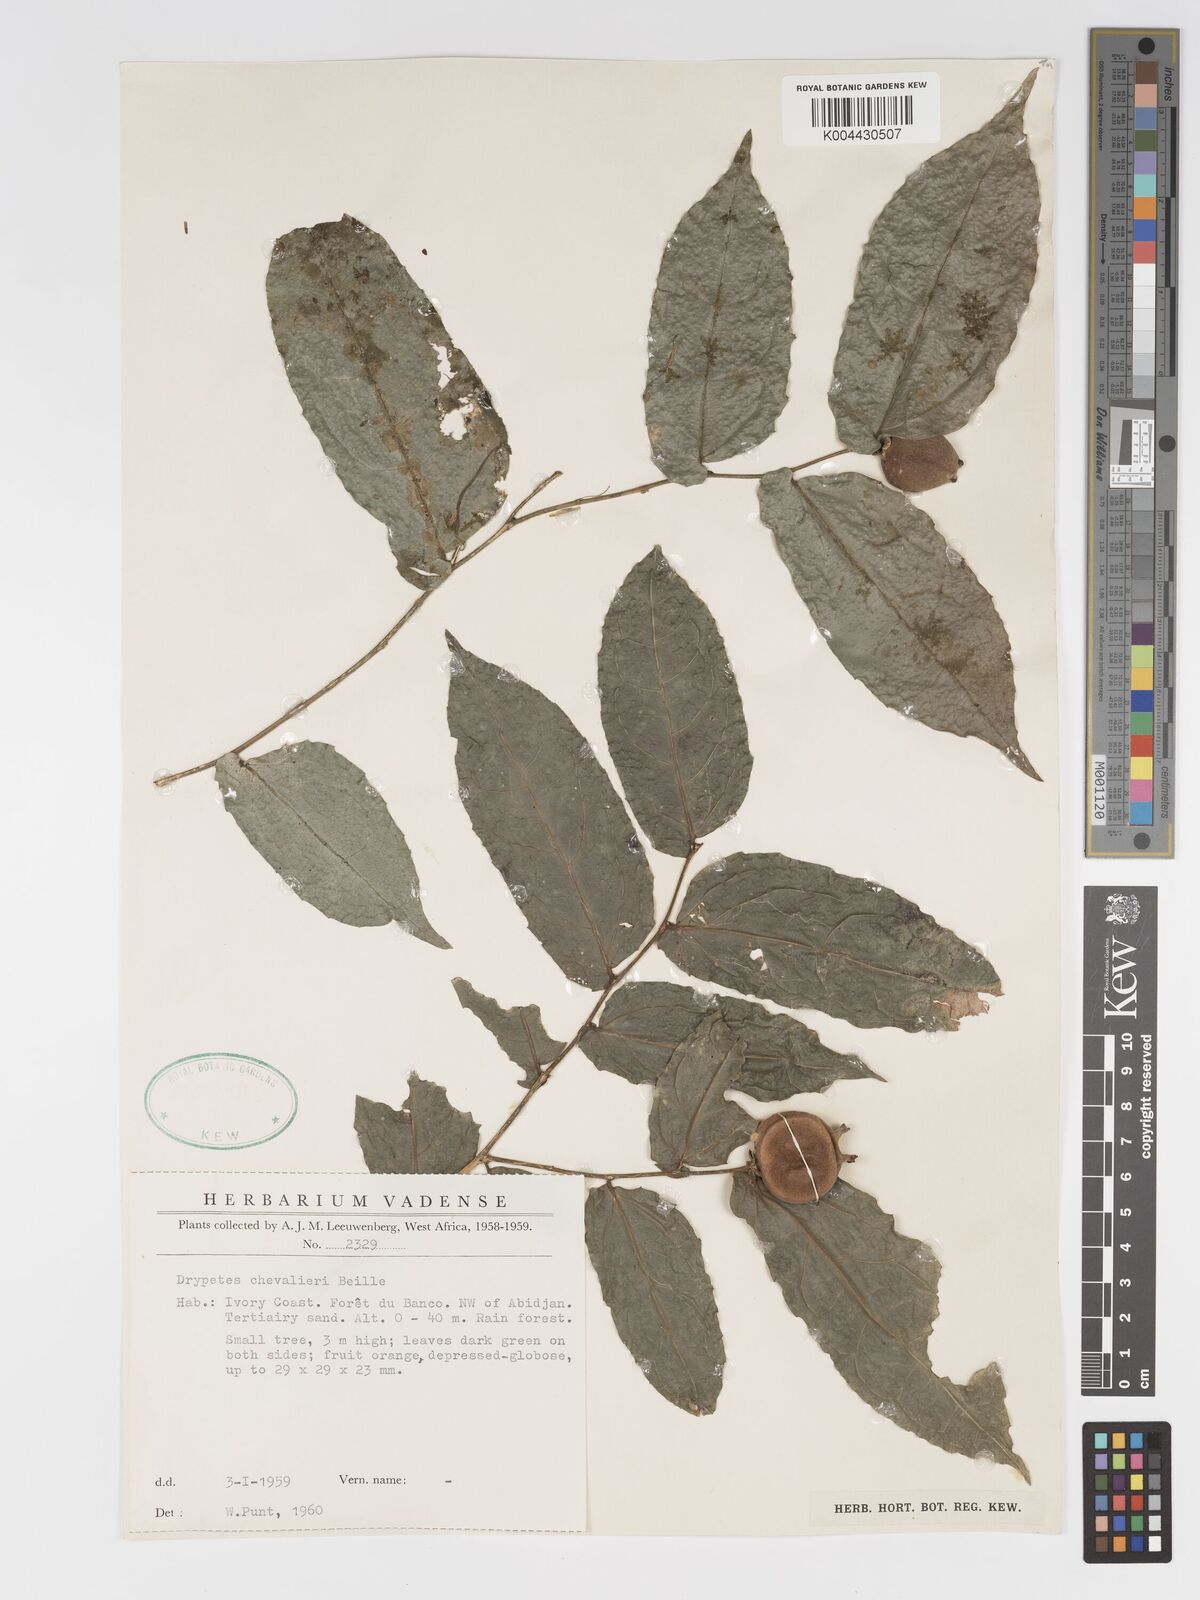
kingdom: Plantae
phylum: Tracheophyta
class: Magnoliopsida
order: Malpighiales
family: Putranjivaceae
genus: Drypetes
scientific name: Drypetes chevalieri
